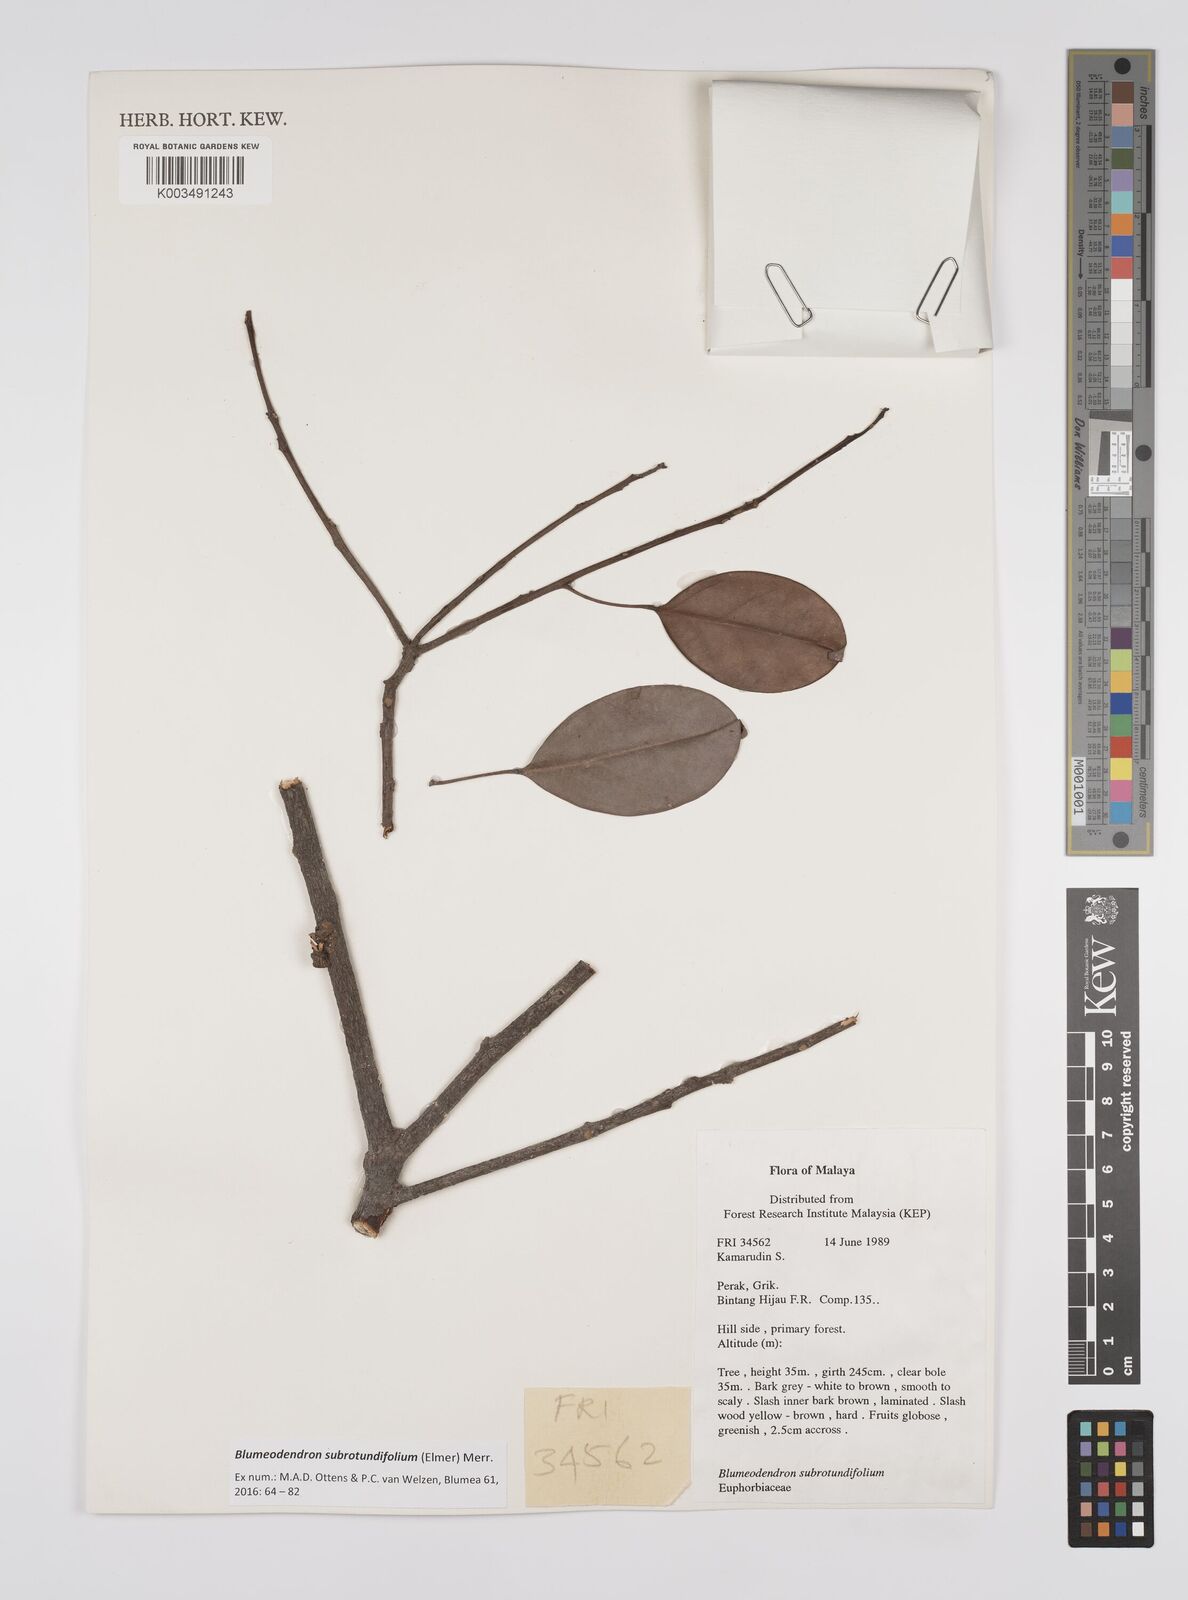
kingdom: Plantae
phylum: Tracheophyta
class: Magnoliopsida
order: Malpighiales
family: Euphorbiaceae
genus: Blumeodendron
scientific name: Blumeodendron subrotundifolium
